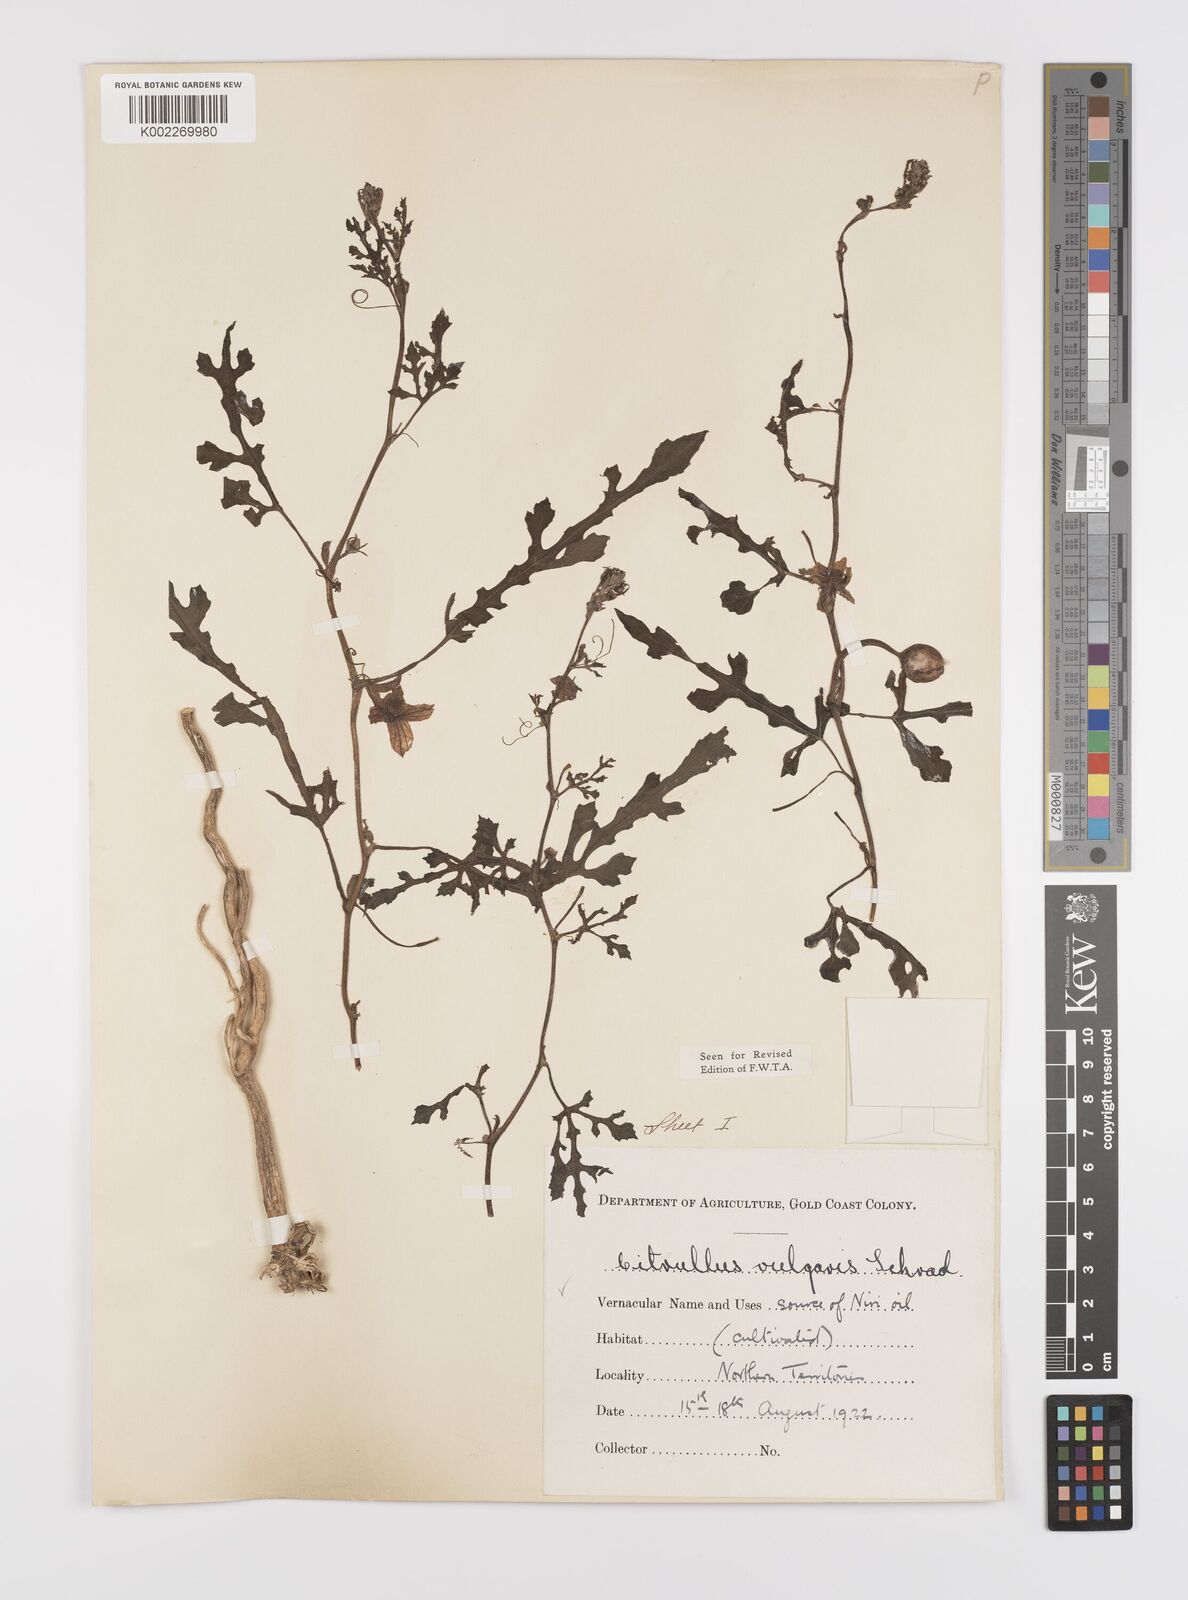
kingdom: Plantae
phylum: Tracheophyta
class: Magnoliopsida
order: Cucurbitales
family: Cucurbitaceae
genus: Citrullus
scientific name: Citrullus lanatus
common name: Watermelon
